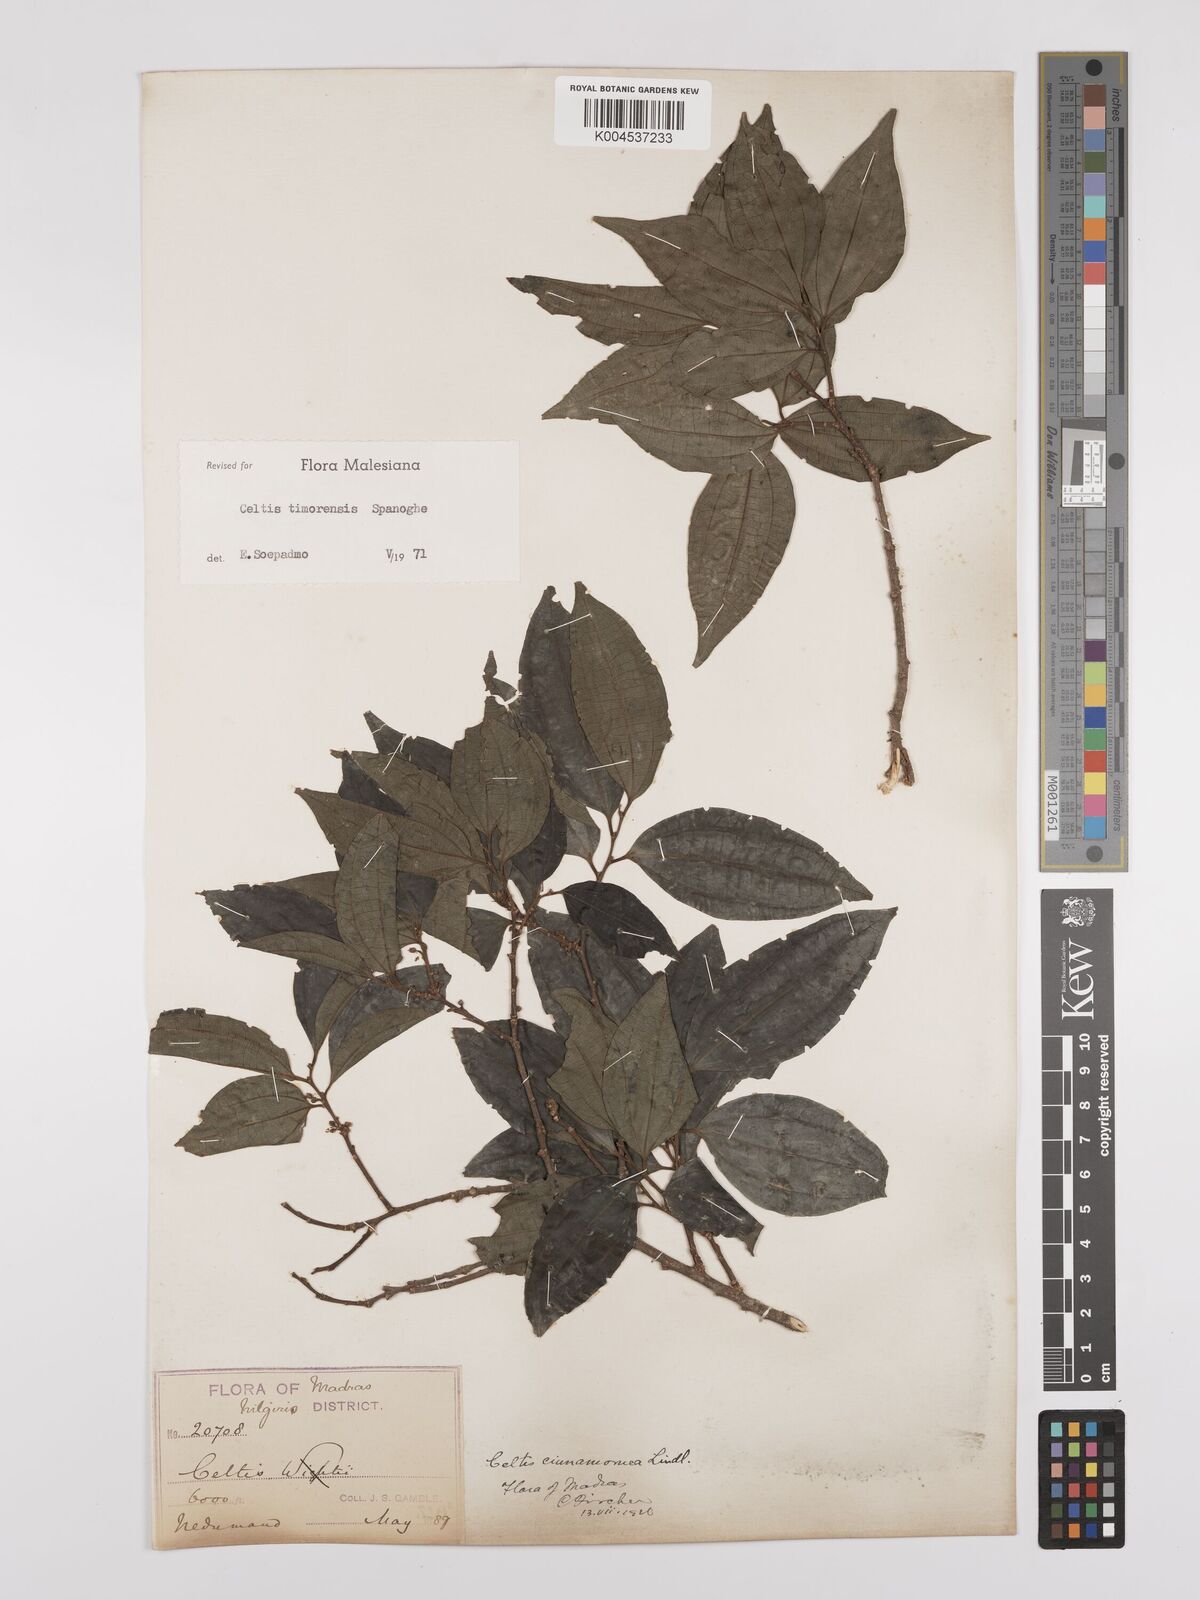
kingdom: Plantae
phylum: Tracheophyta
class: Magnoliopsida
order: Rosales
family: Cannabaceae
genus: Celtis
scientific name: Celtis timorensis
